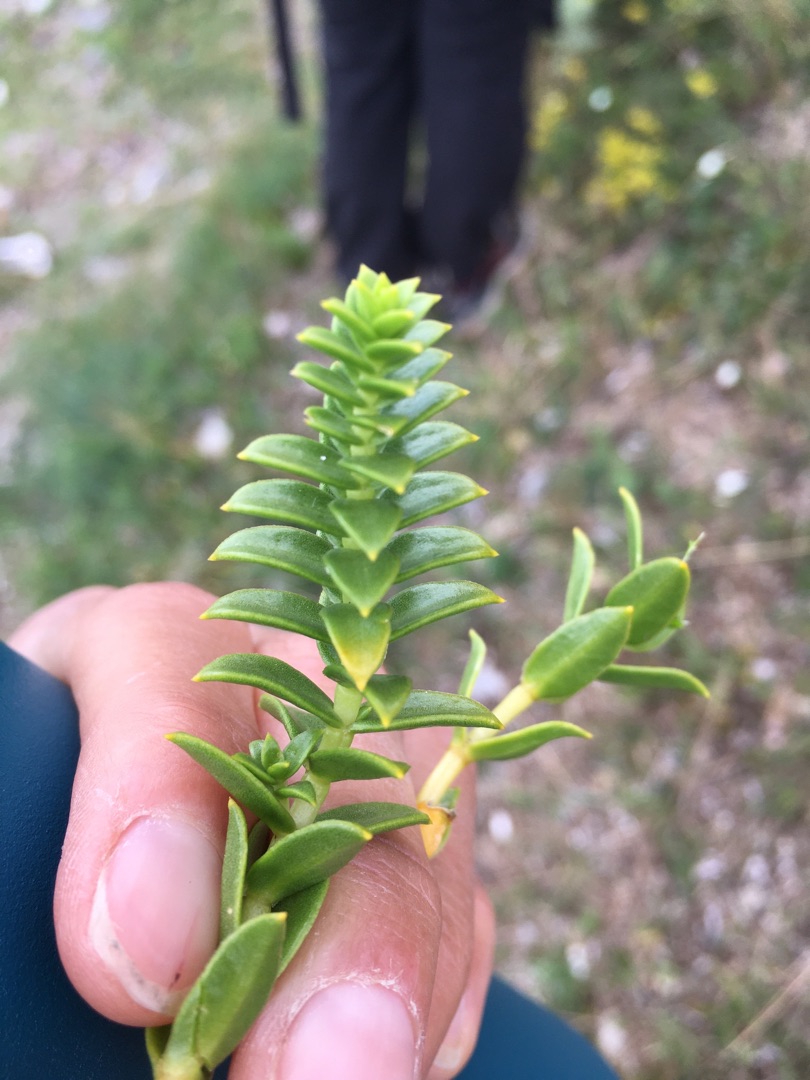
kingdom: Plantae
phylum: Tracheophyta
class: Magnoliopsida
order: Caryophyllales
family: Caryophyllaceae
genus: Honckenya
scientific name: Honckenya peploides
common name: Strandarve
